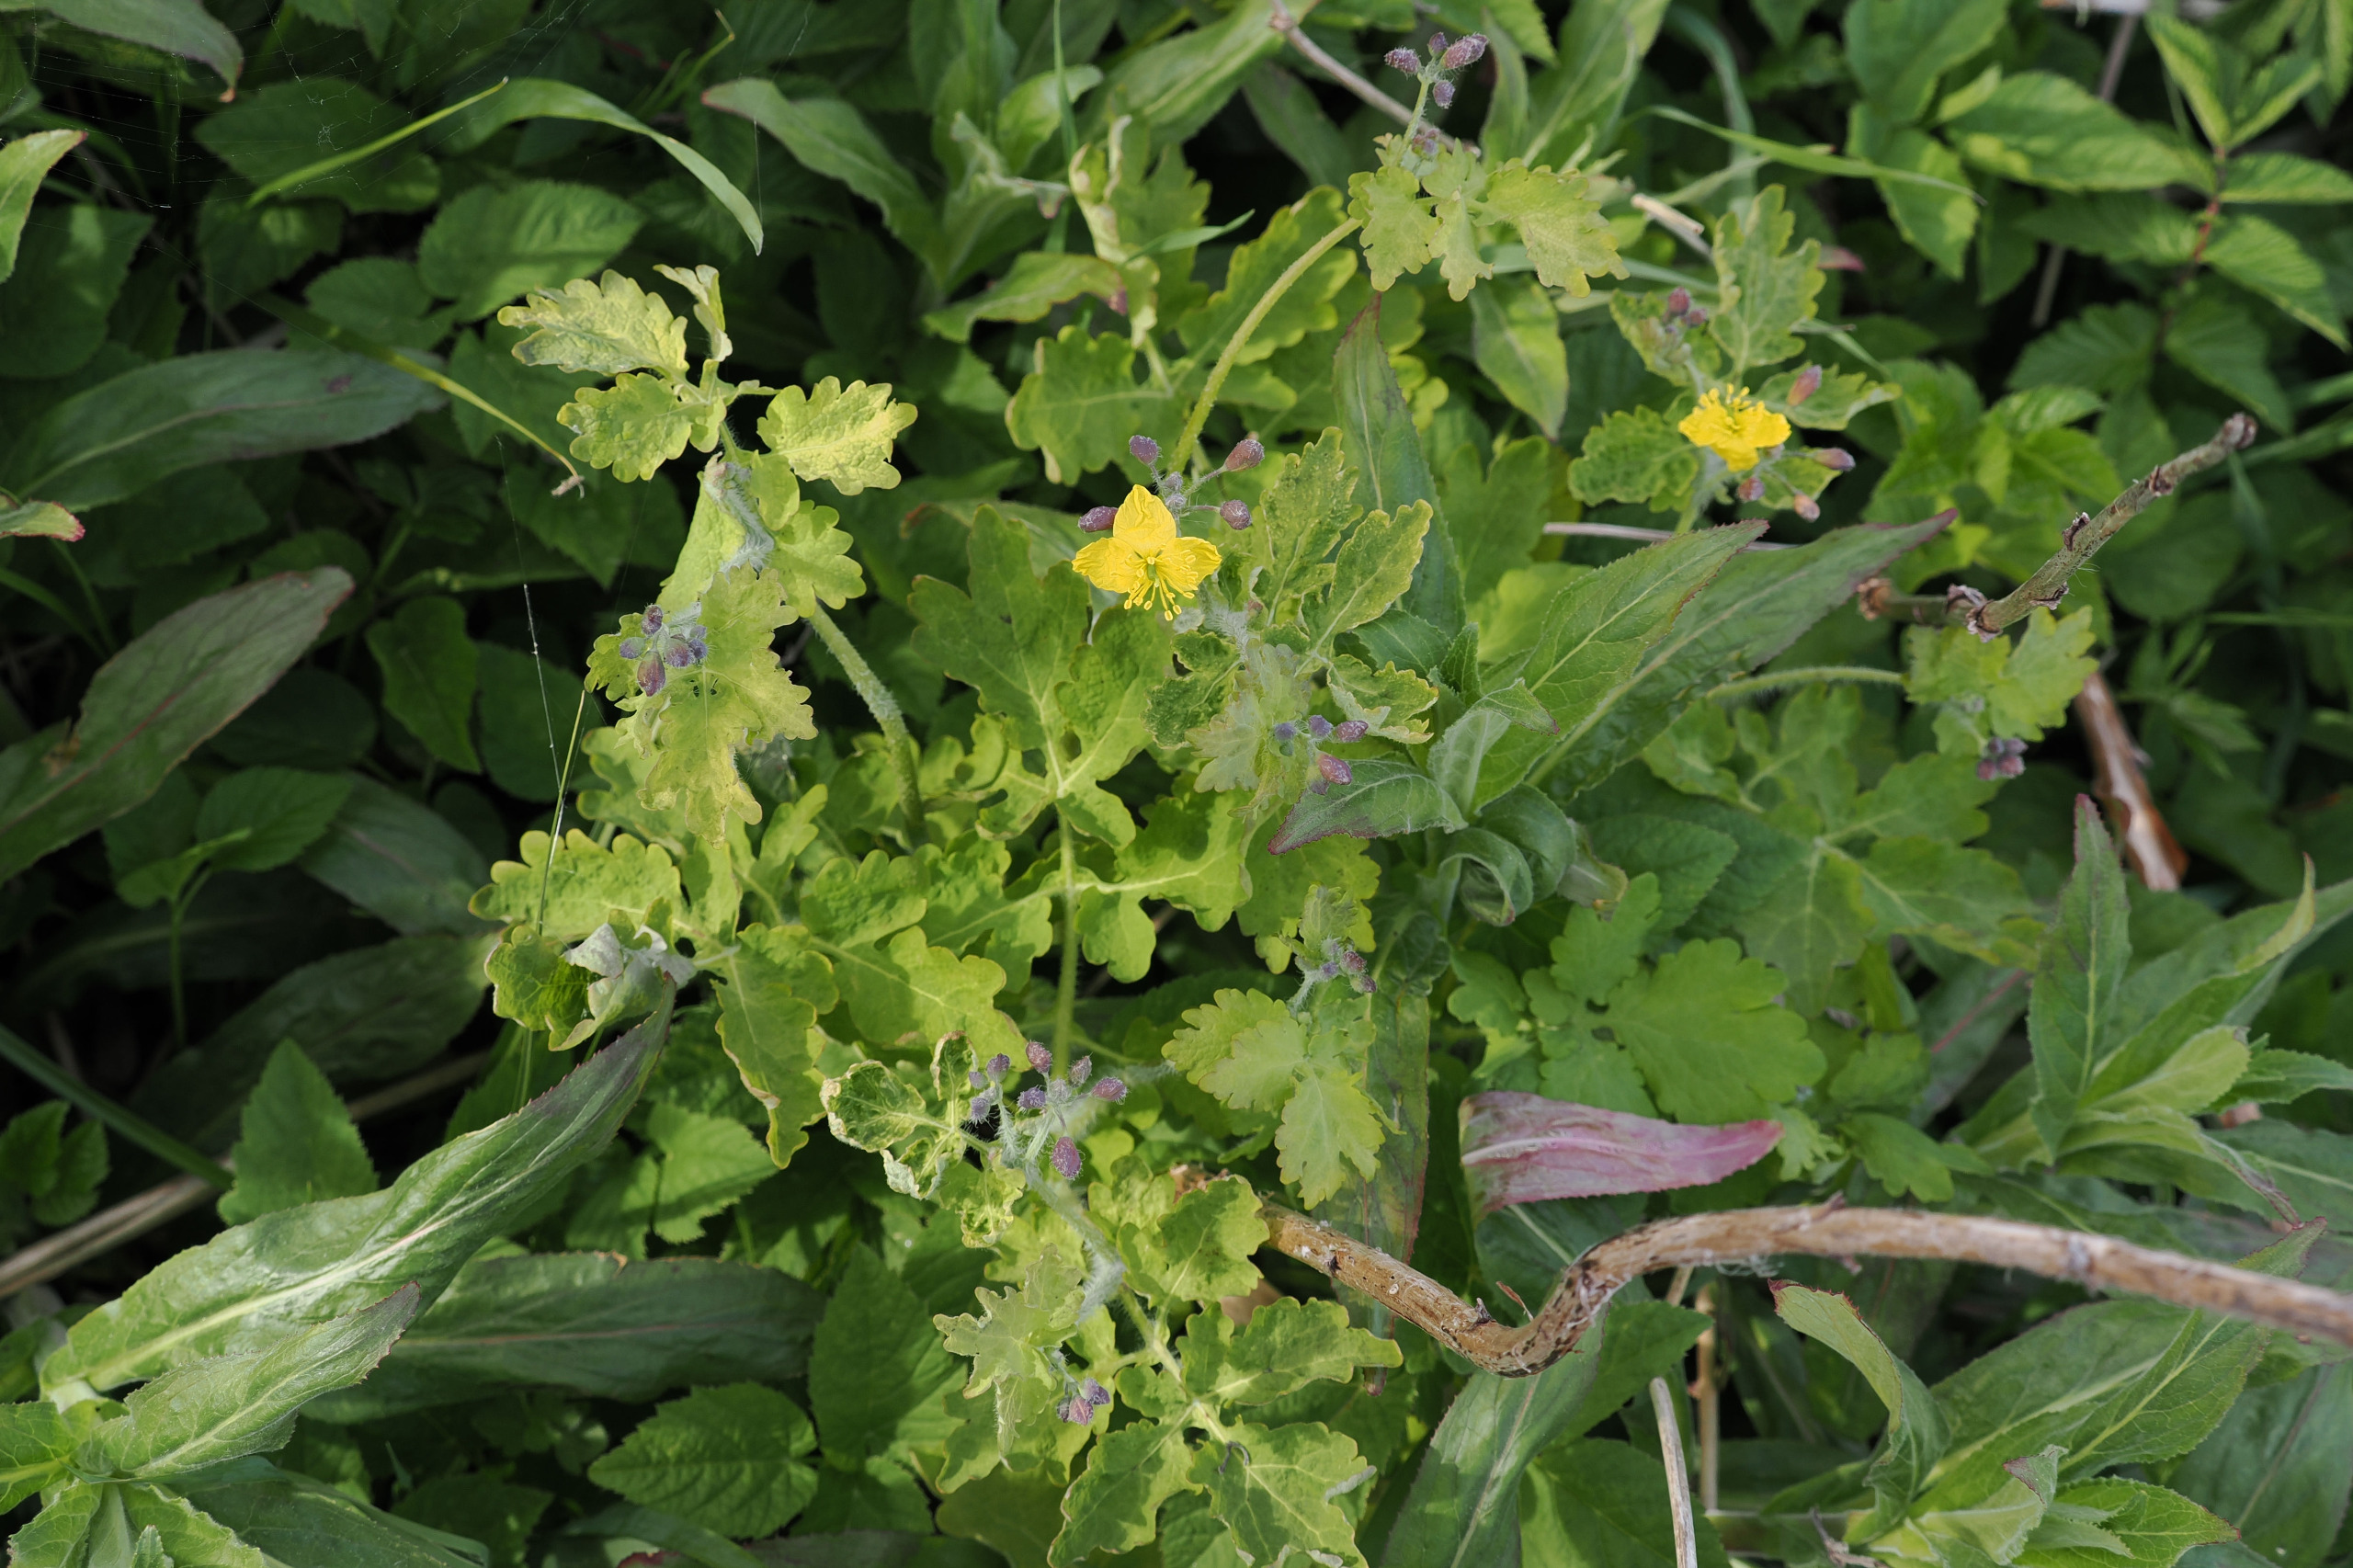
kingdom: Plantae
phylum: Tracheophyta
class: Magnoliopsida
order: Ranunculales
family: Papaveraceae
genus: Chelidonium
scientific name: Chelidonium majus
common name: Svaleurt
